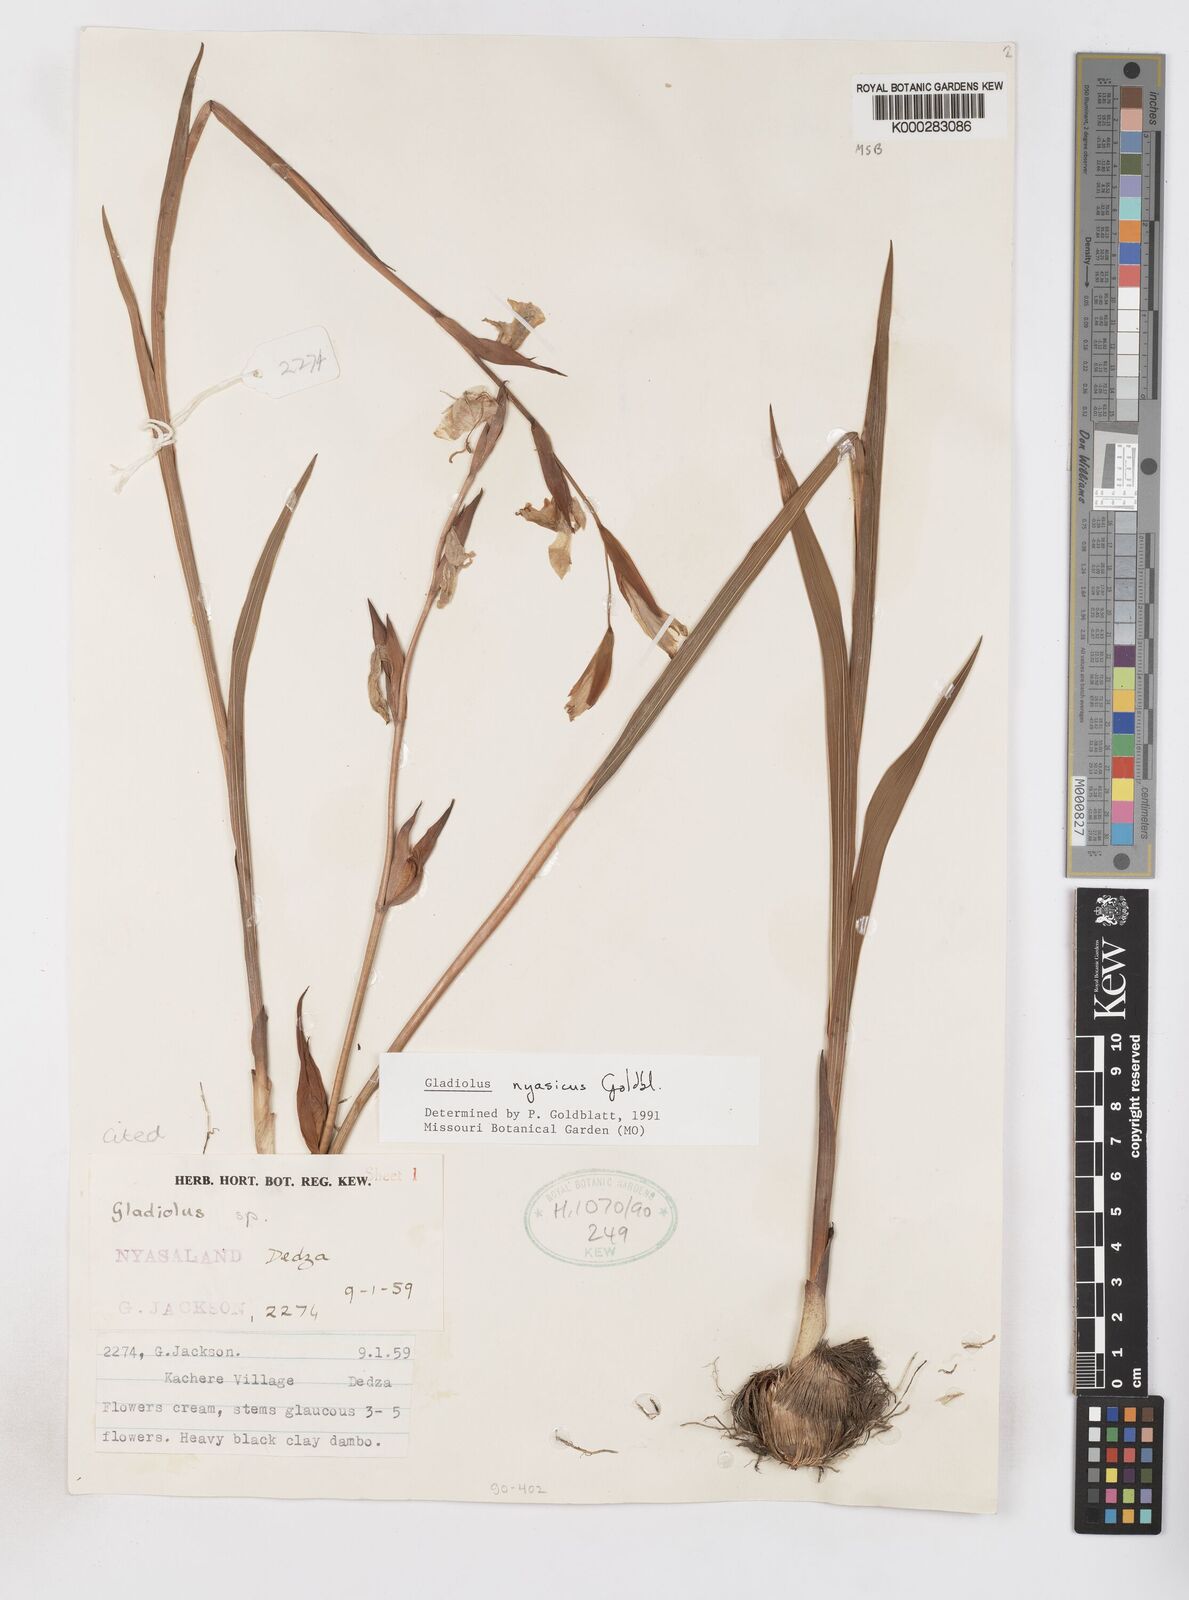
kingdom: Plantae
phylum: Tracheophyta
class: Liliopsida
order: Asparagales
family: Iridaceae
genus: Gladiolus
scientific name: Gladiolus nyasicus
